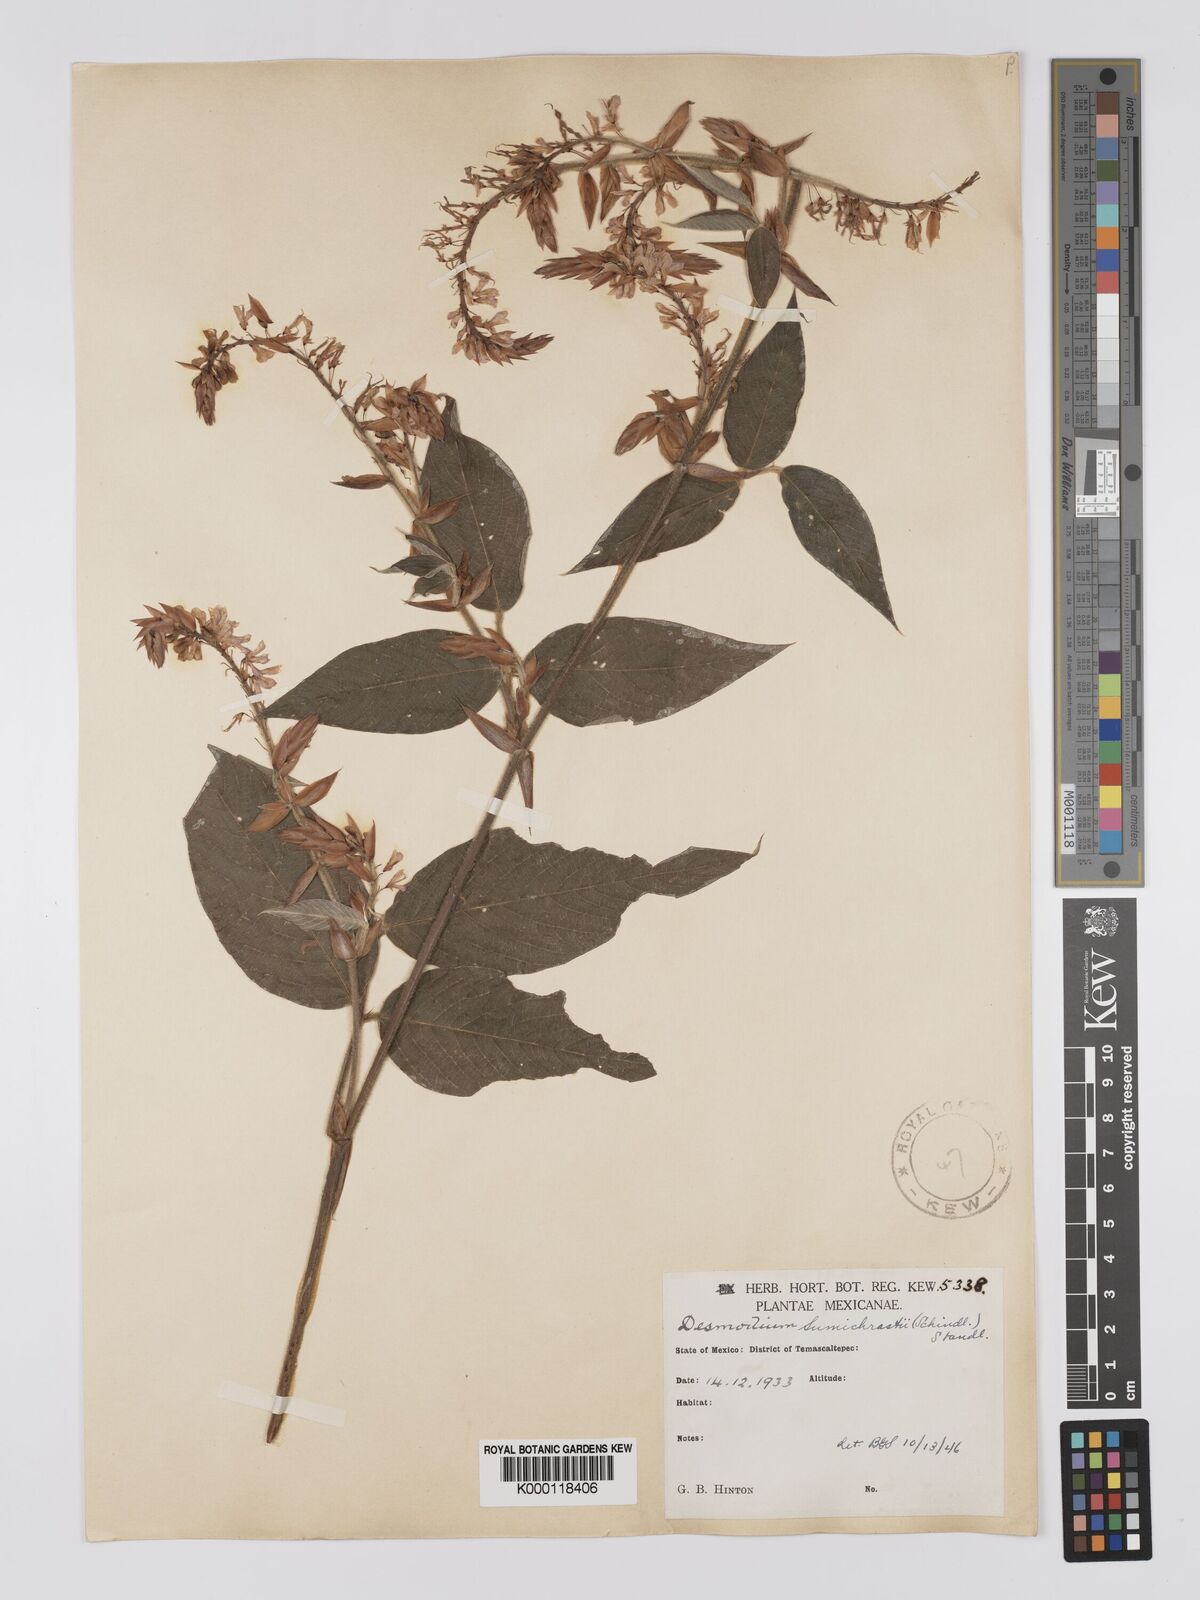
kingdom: Plantae
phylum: Tracheophyta
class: Magnoliopsida
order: Fabales
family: Fabaceae
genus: Desmodium
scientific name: Desmodium sumichrastii
